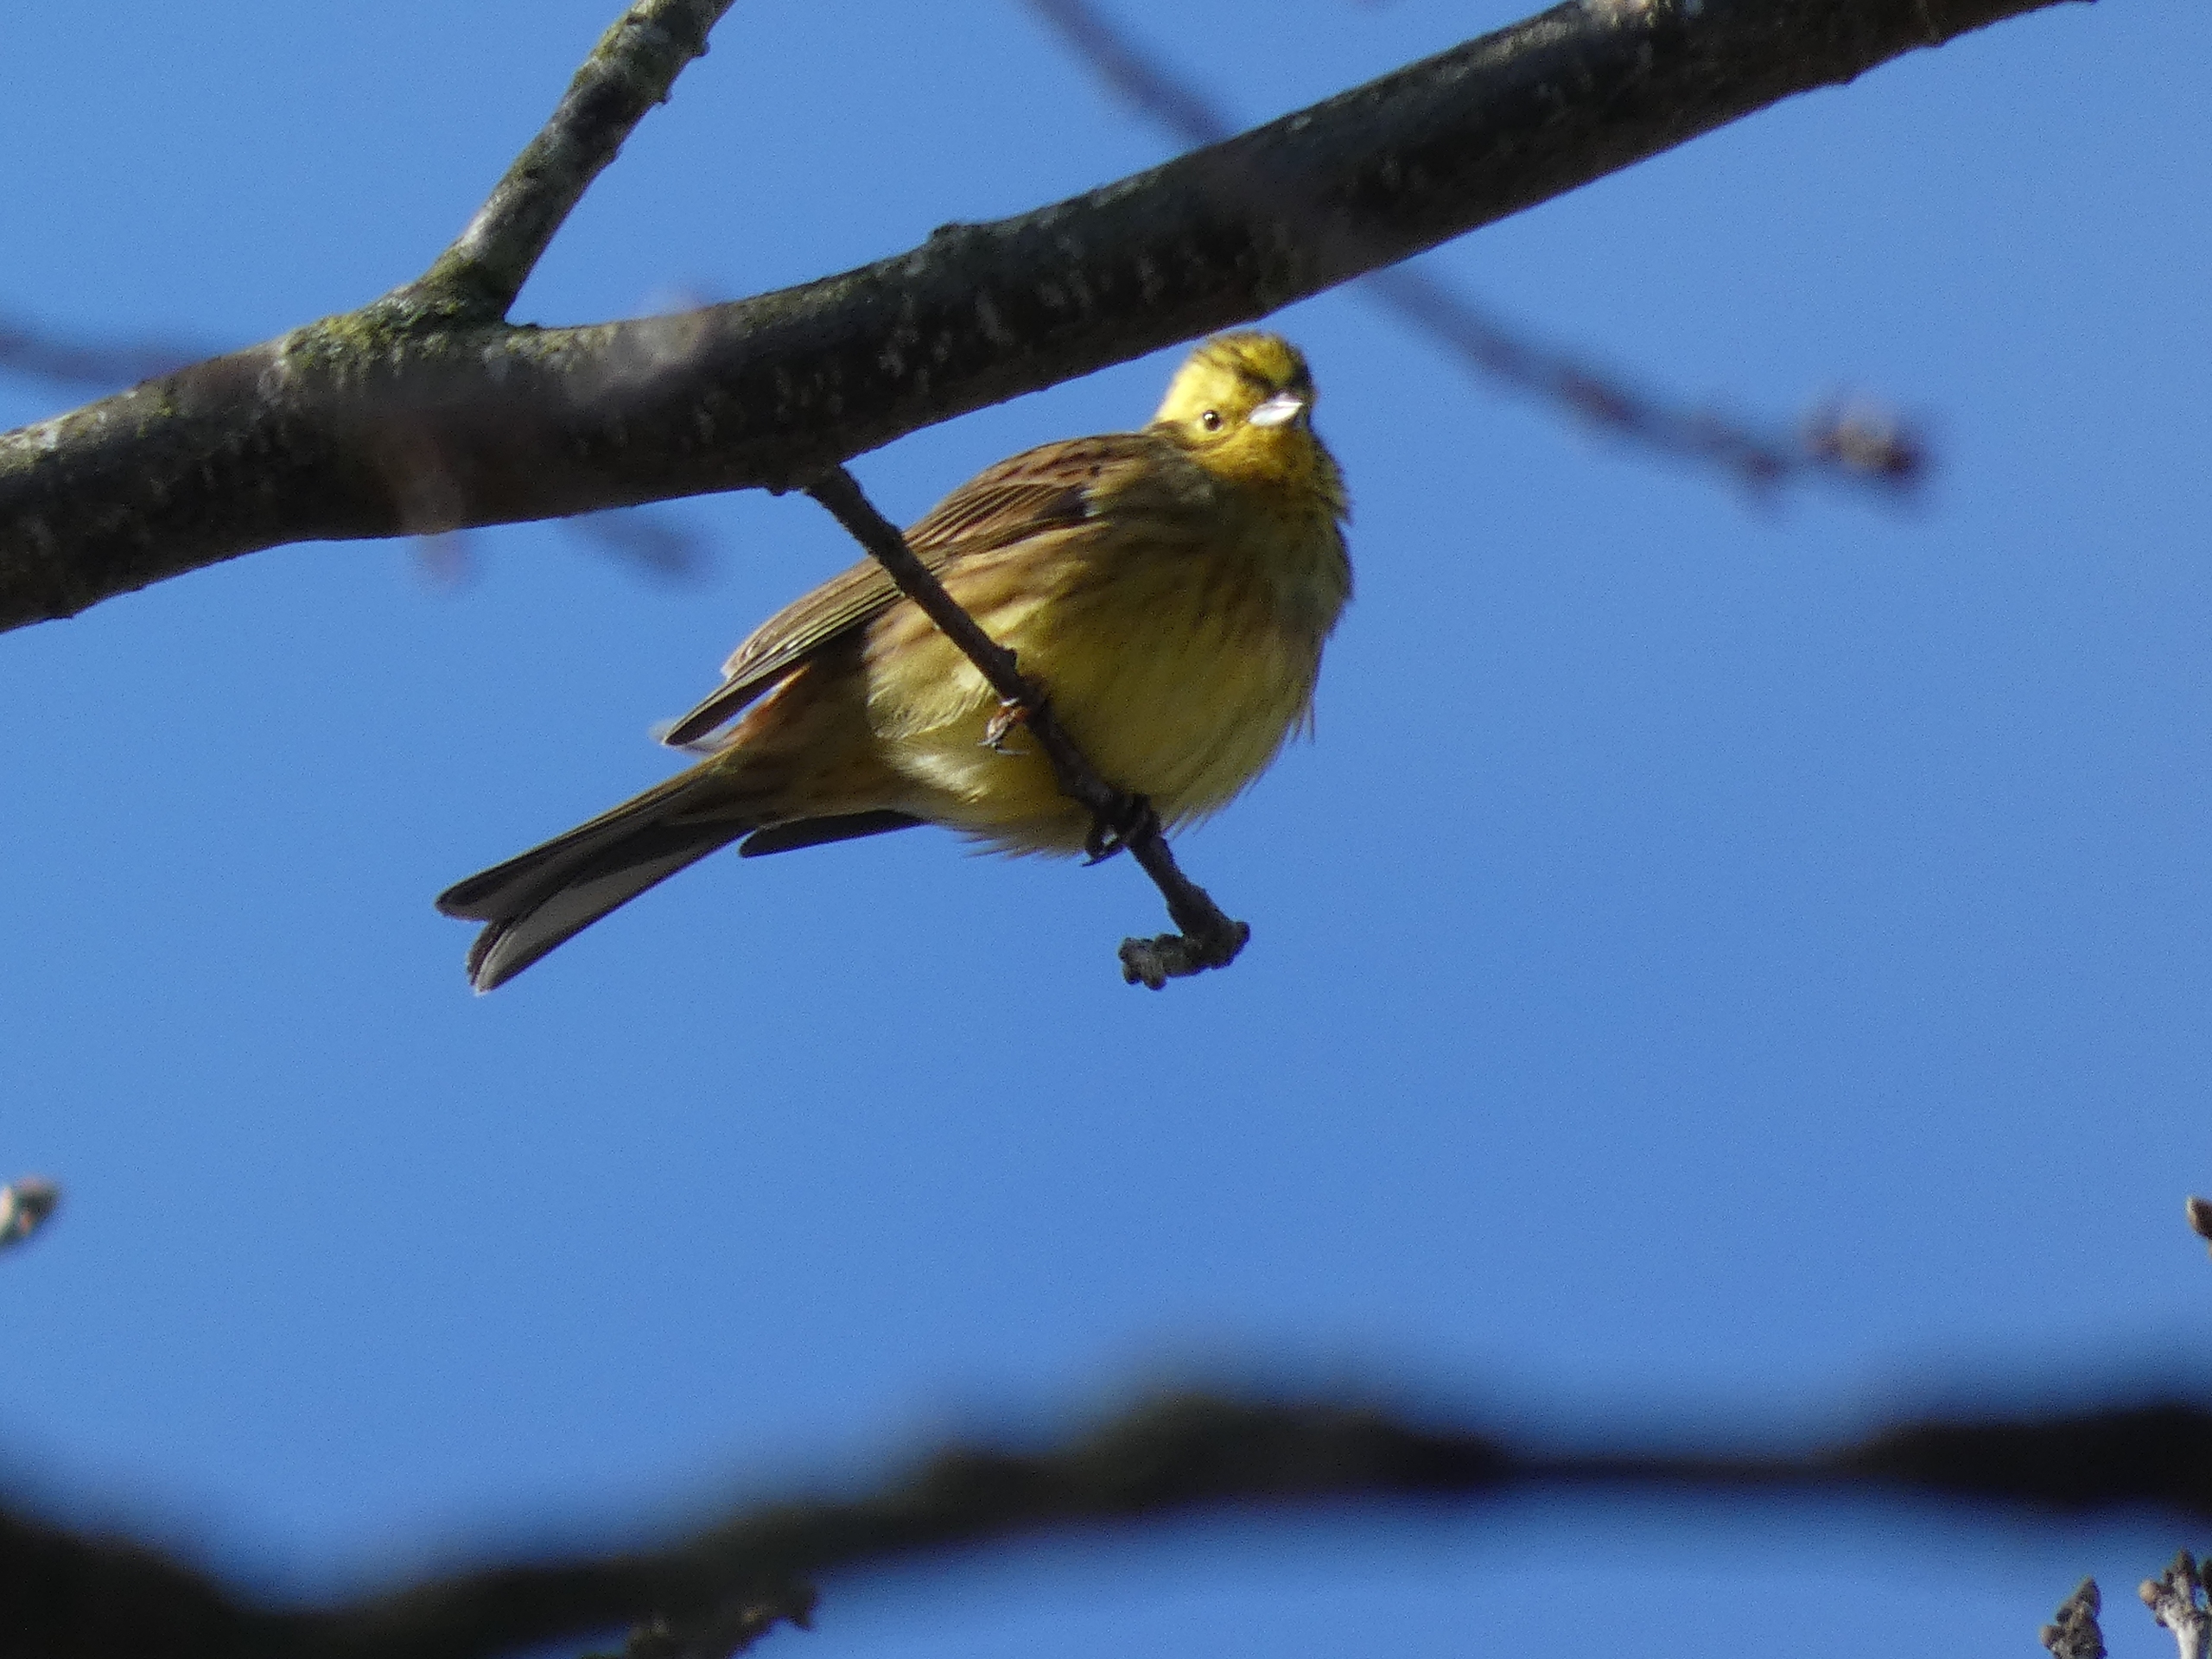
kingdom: Animalia
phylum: Chordata
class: Aves
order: Passeriformes
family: Emberizidae
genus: Emberiza
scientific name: Emberiza citrinella
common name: Gulspurv
